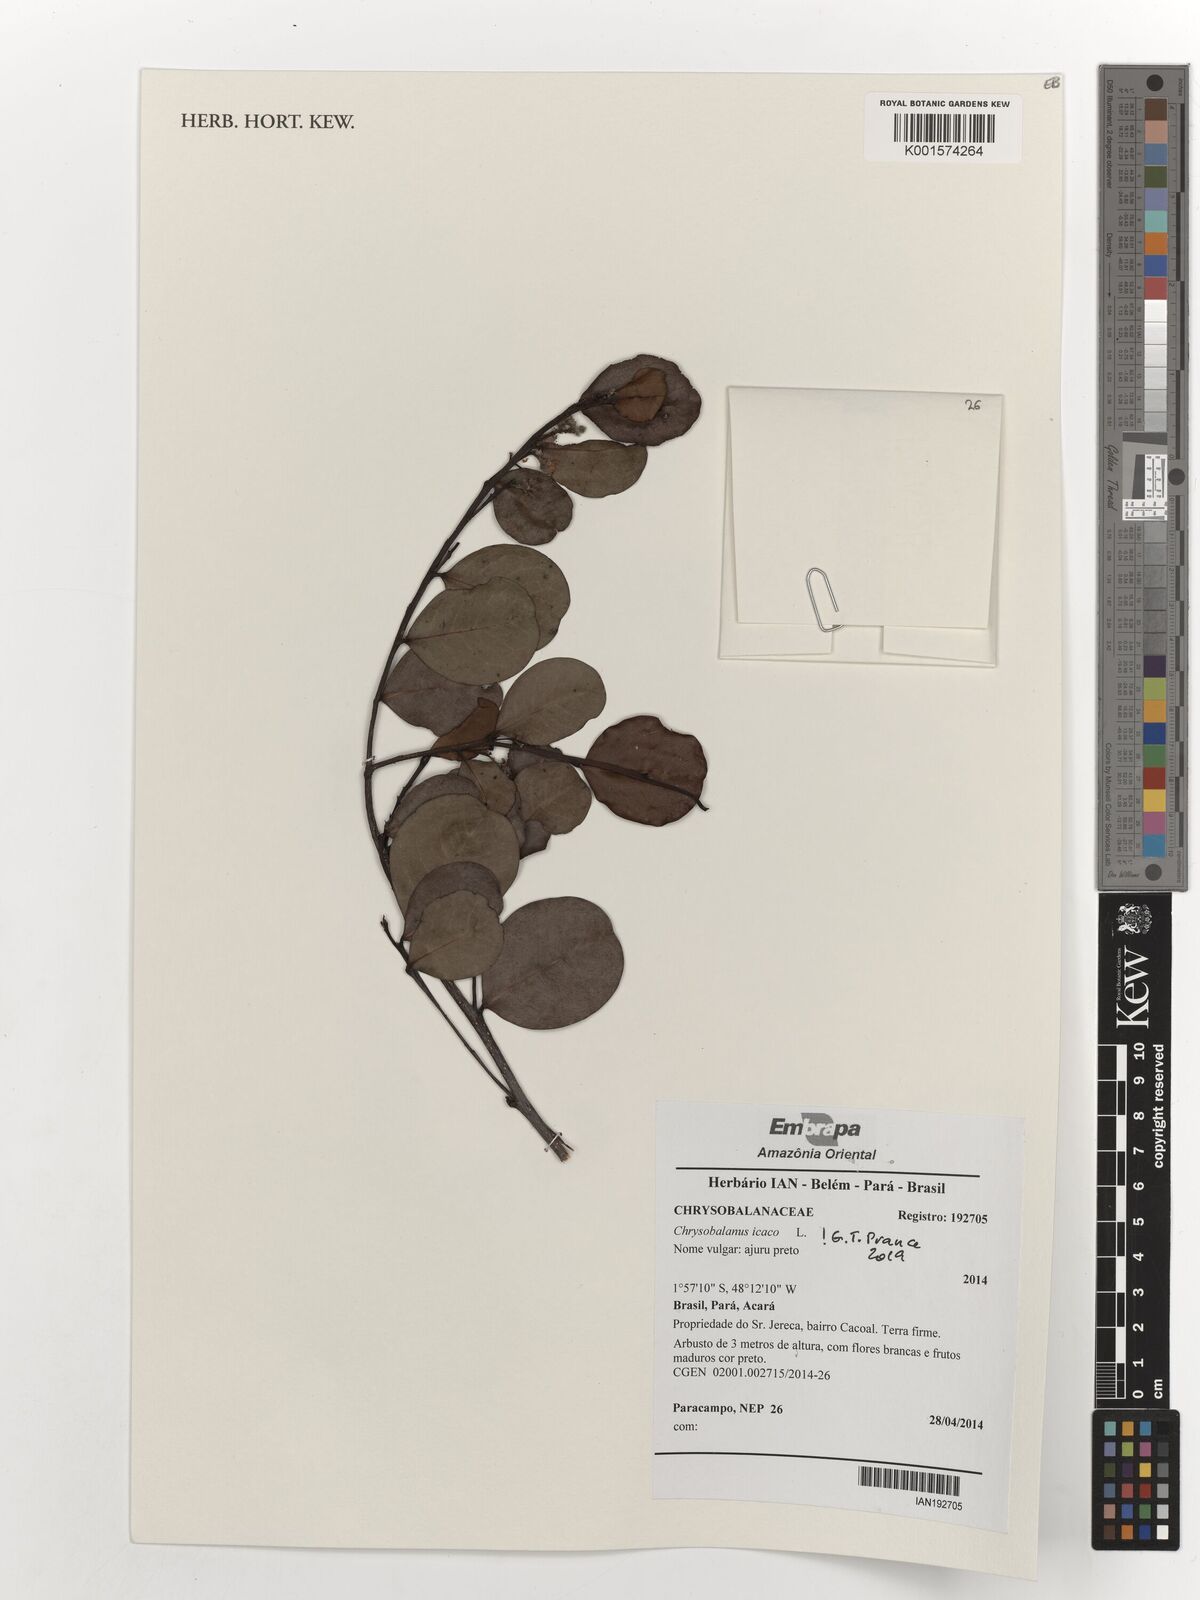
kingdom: Plantae
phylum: Tracheophyta
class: Magnoliopsida
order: Malpighiales
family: Chrysobalanaceae
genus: Chrysobalanus
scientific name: Chrysobalanus icaco
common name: Coco plum
